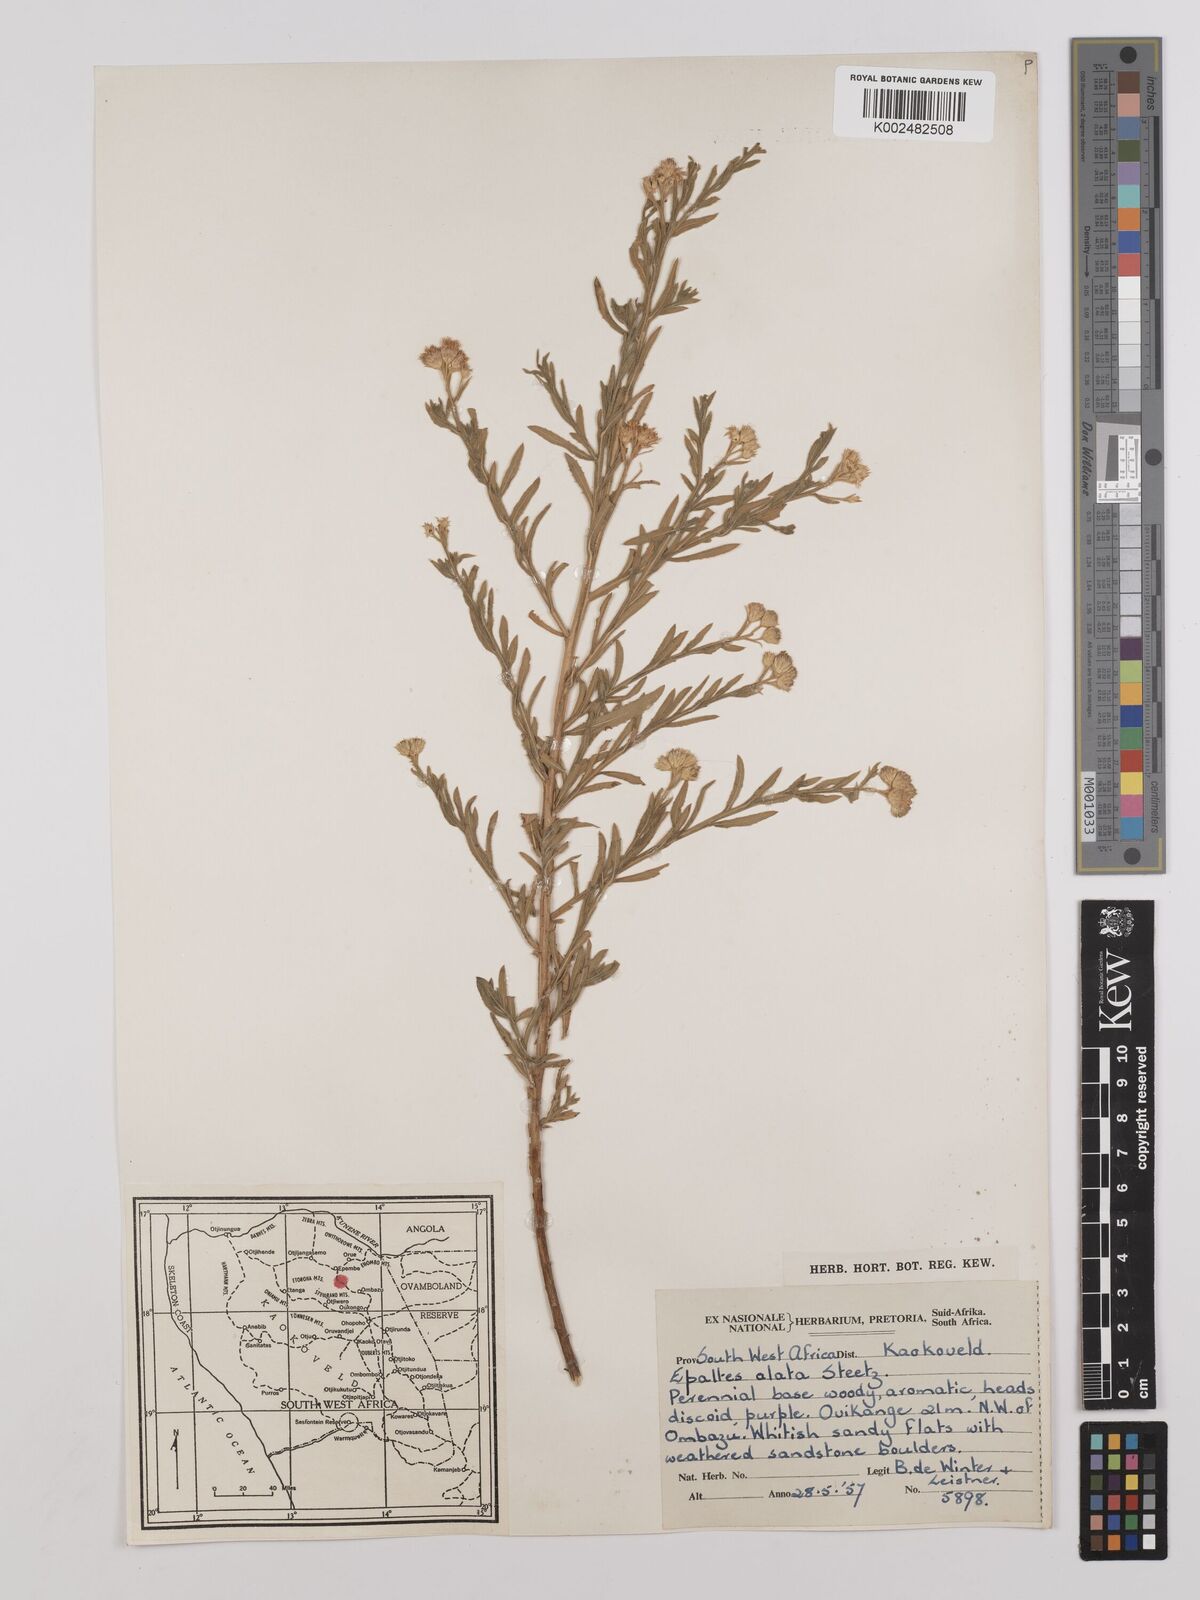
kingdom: Plantae
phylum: Tracheophyta
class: Magnoliopsida
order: Asterales
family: Asteraceae
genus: Litogyne
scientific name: Litogyne gariepina
